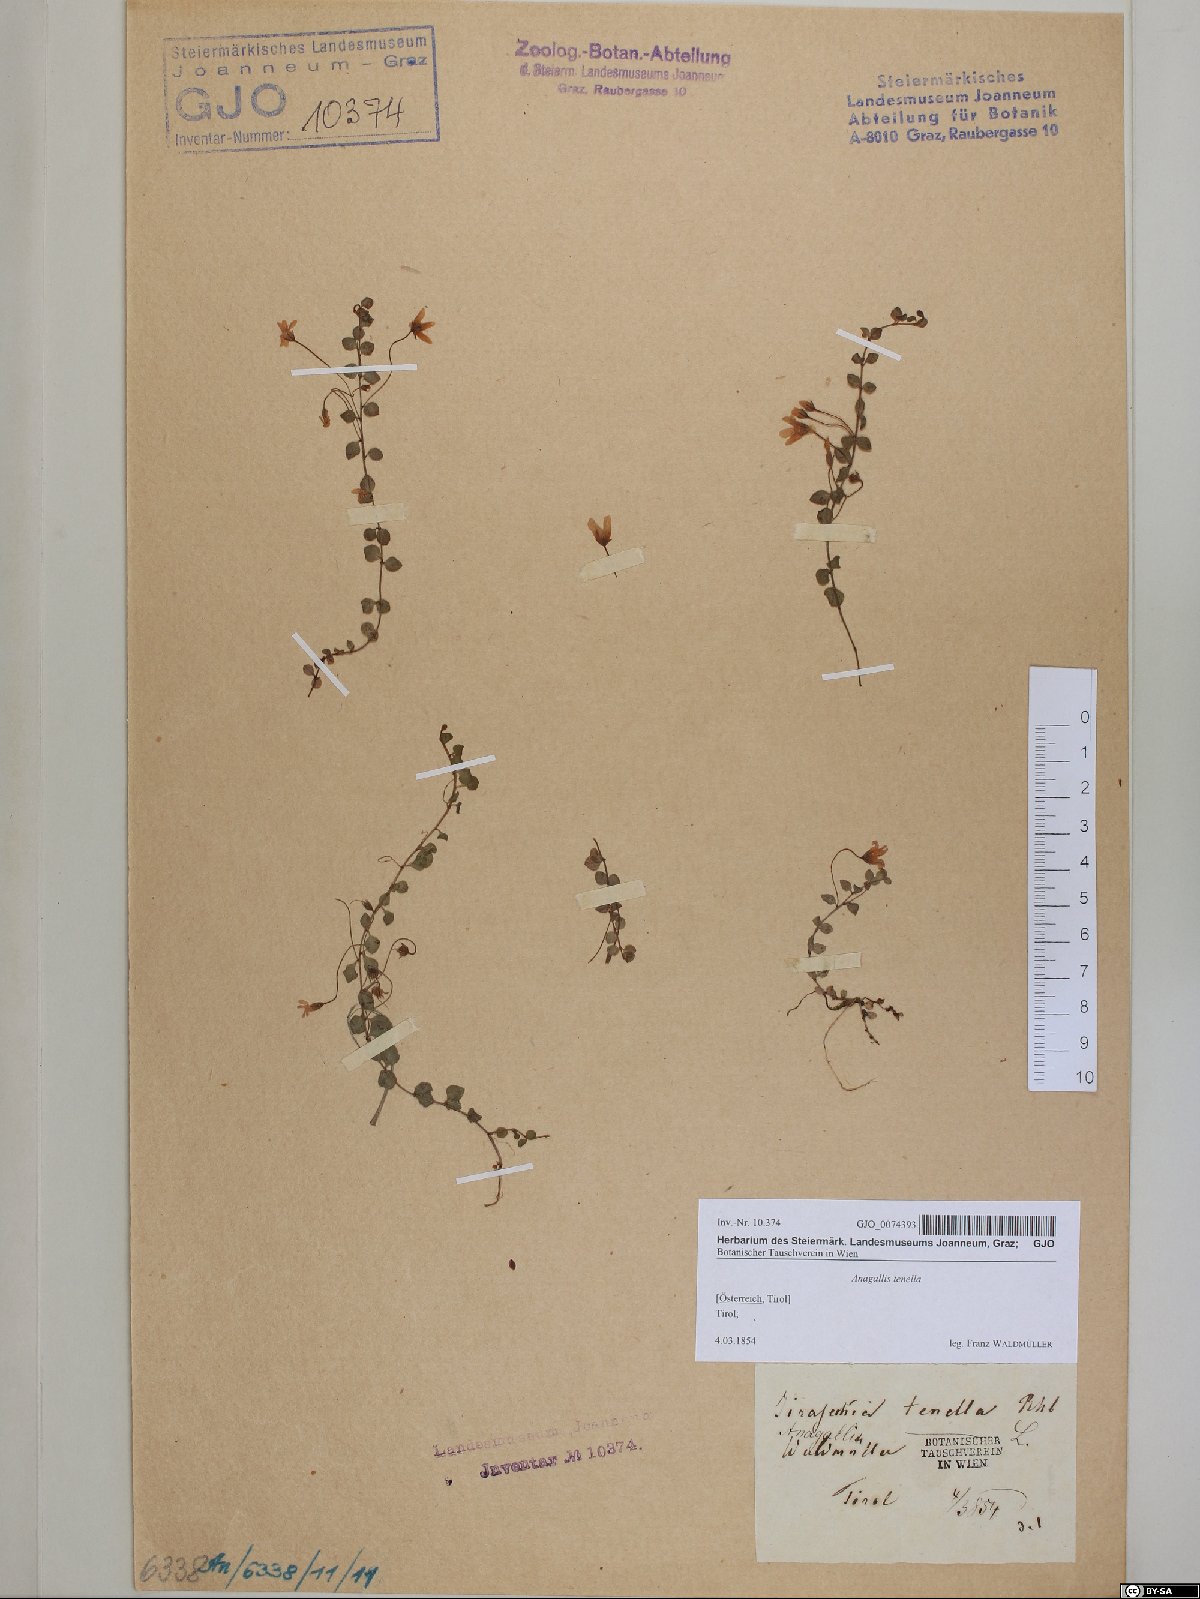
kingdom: Plantae
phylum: Tracheophyta
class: Magnoliopsida
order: Ericales
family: Primulaceae
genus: Lysimachia
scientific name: Lysimachia tenella
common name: European bog pimpernel
